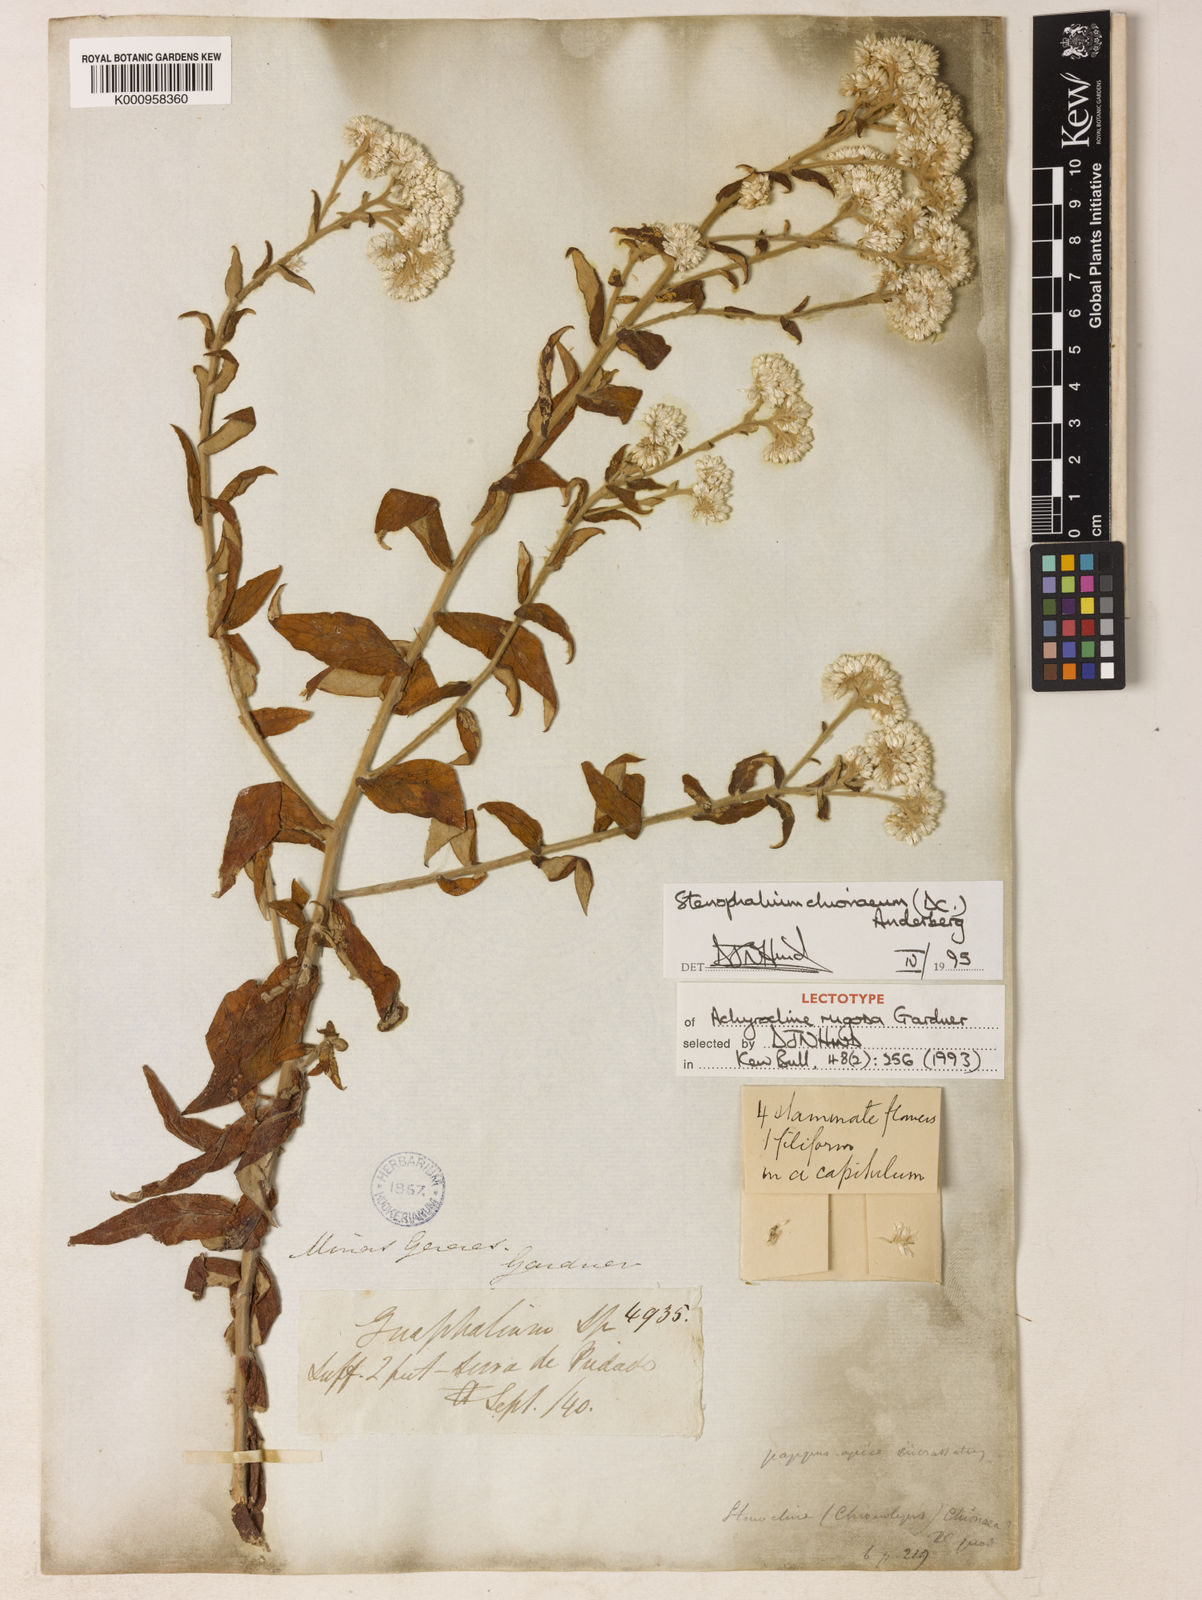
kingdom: Plantae
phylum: Tracheophyta
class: Magnoliopsida
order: Asterales
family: Asteraceae
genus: Achyrocline
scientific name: Achyrocline chionaea
